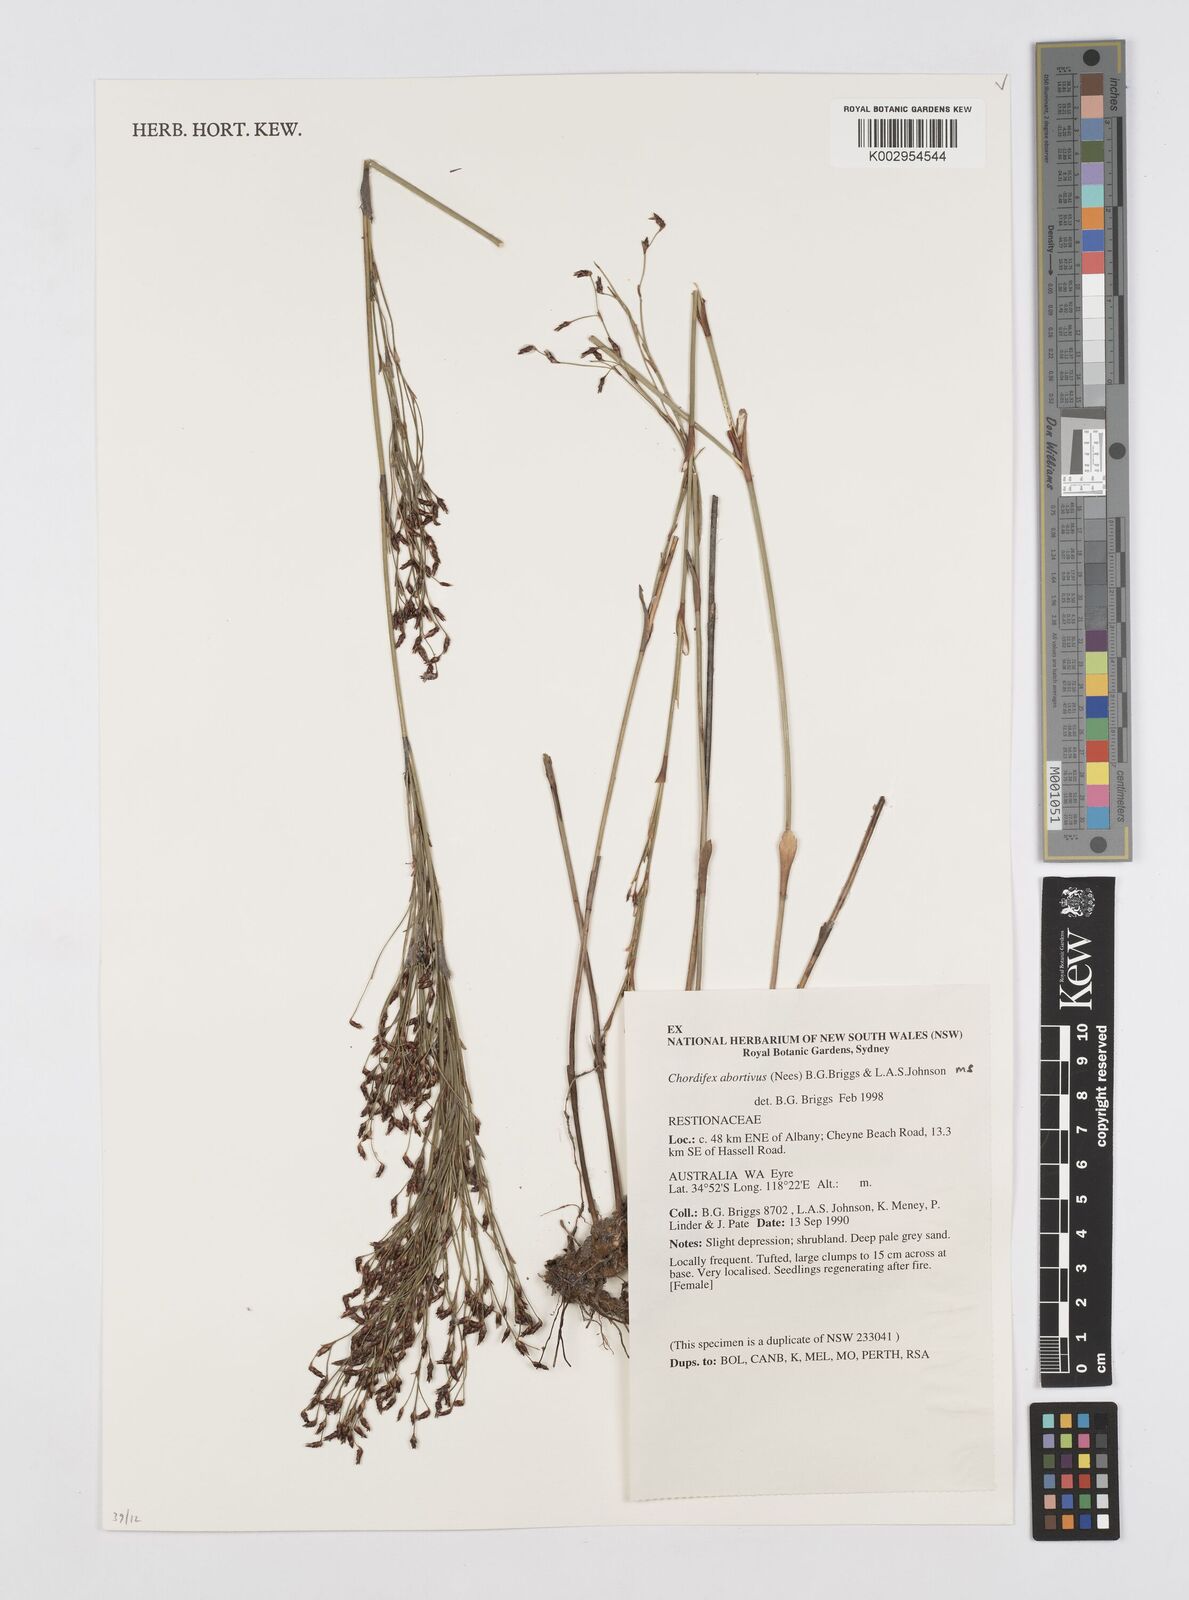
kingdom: Plantae
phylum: Tracheophyta
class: Liliopsida
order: Poales
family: Restionaceae
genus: Chordifex
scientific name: Chordifex abortivus
